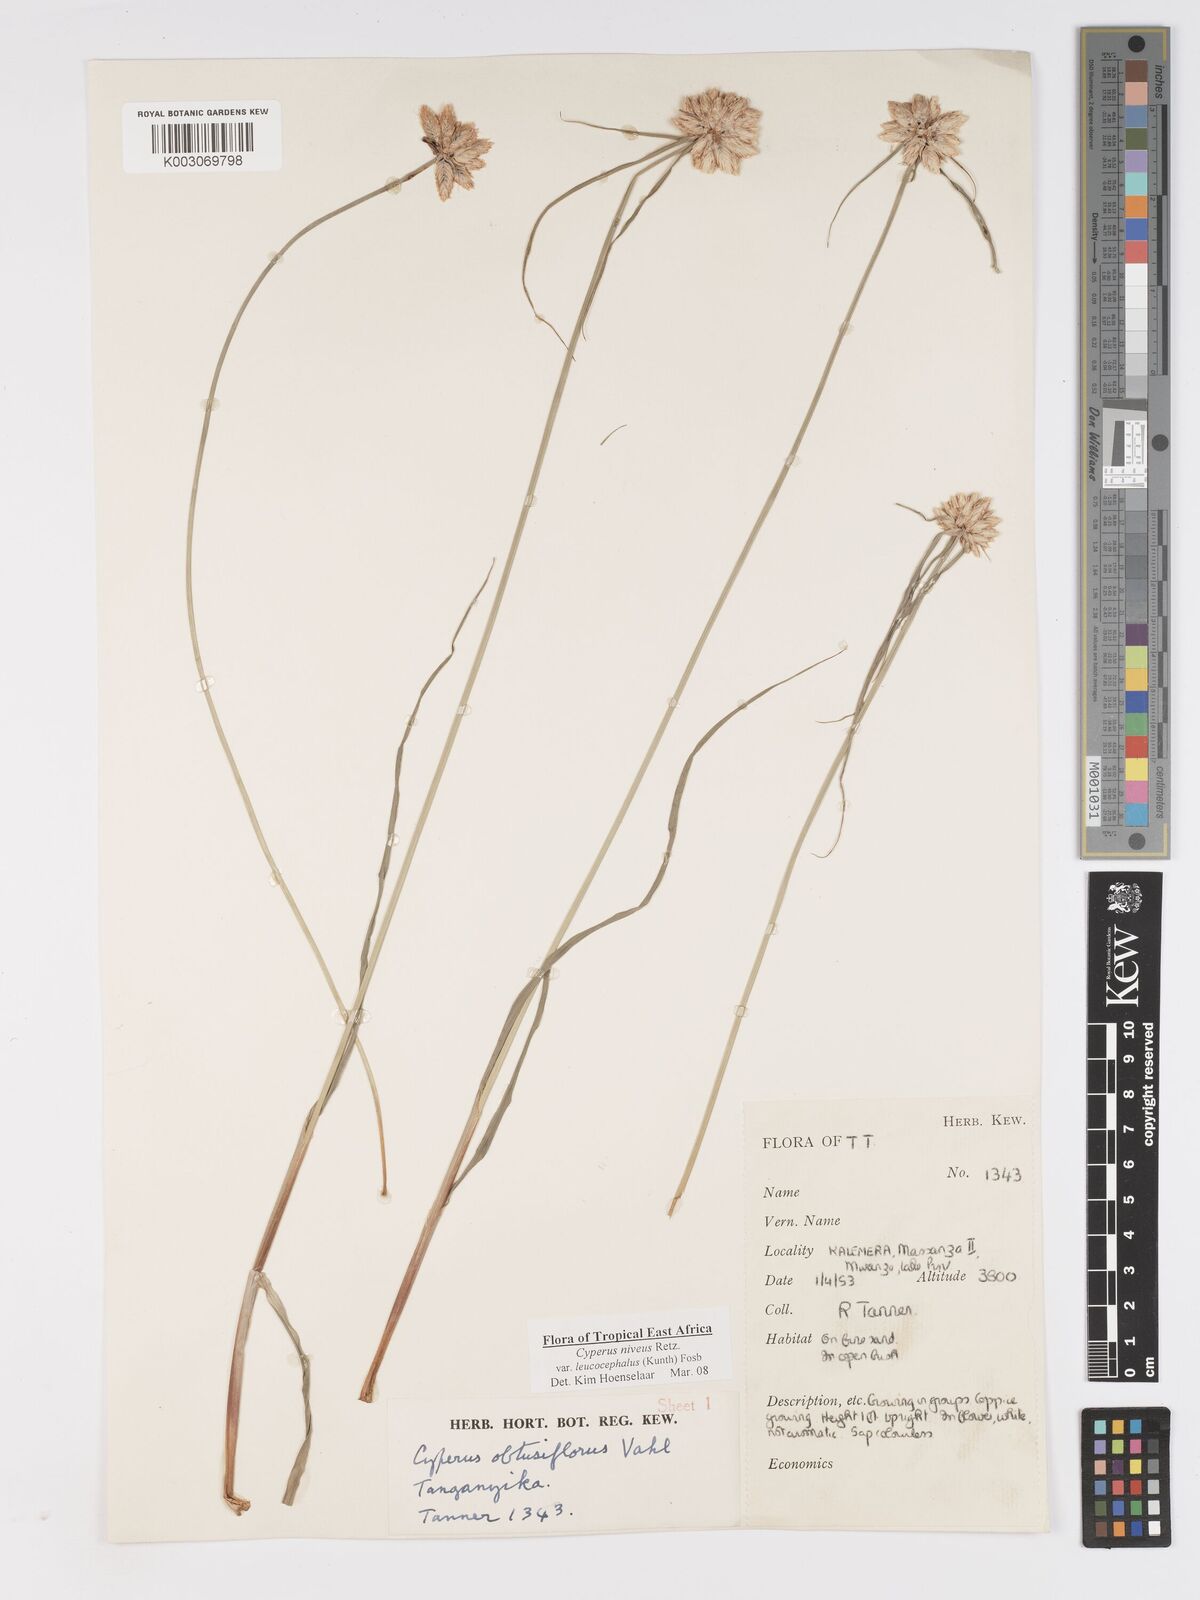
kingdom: Plantae
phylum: Tracheophyta
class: Liliopsida
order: Poales
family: Cyperaceae
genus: Cyperus
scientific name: Cyperus niveus
